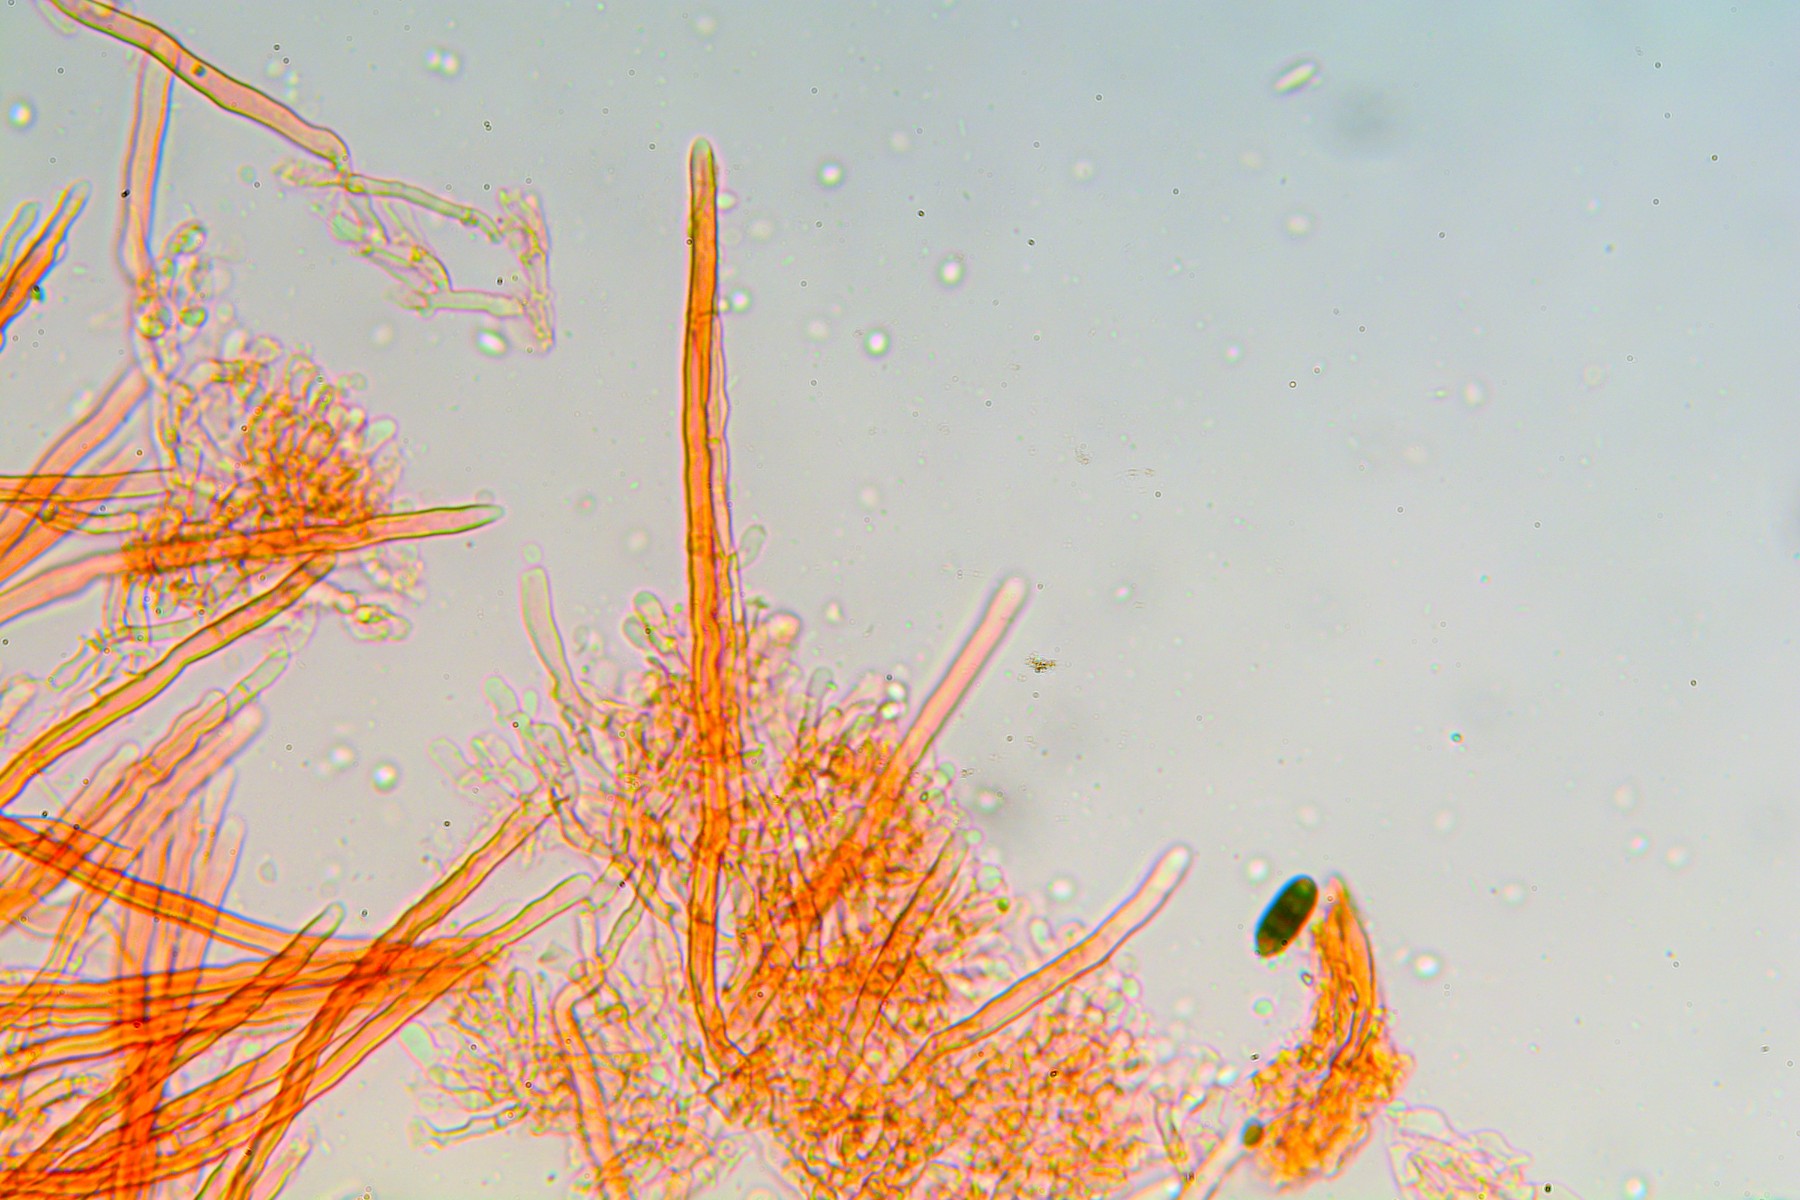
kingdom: Fungi
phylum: Basidiomycota
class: Agaricomycetes
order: Hymenochaetales
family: Schizoporaceae
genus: Fibrodontia
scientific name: Fibrodontia gossypina
